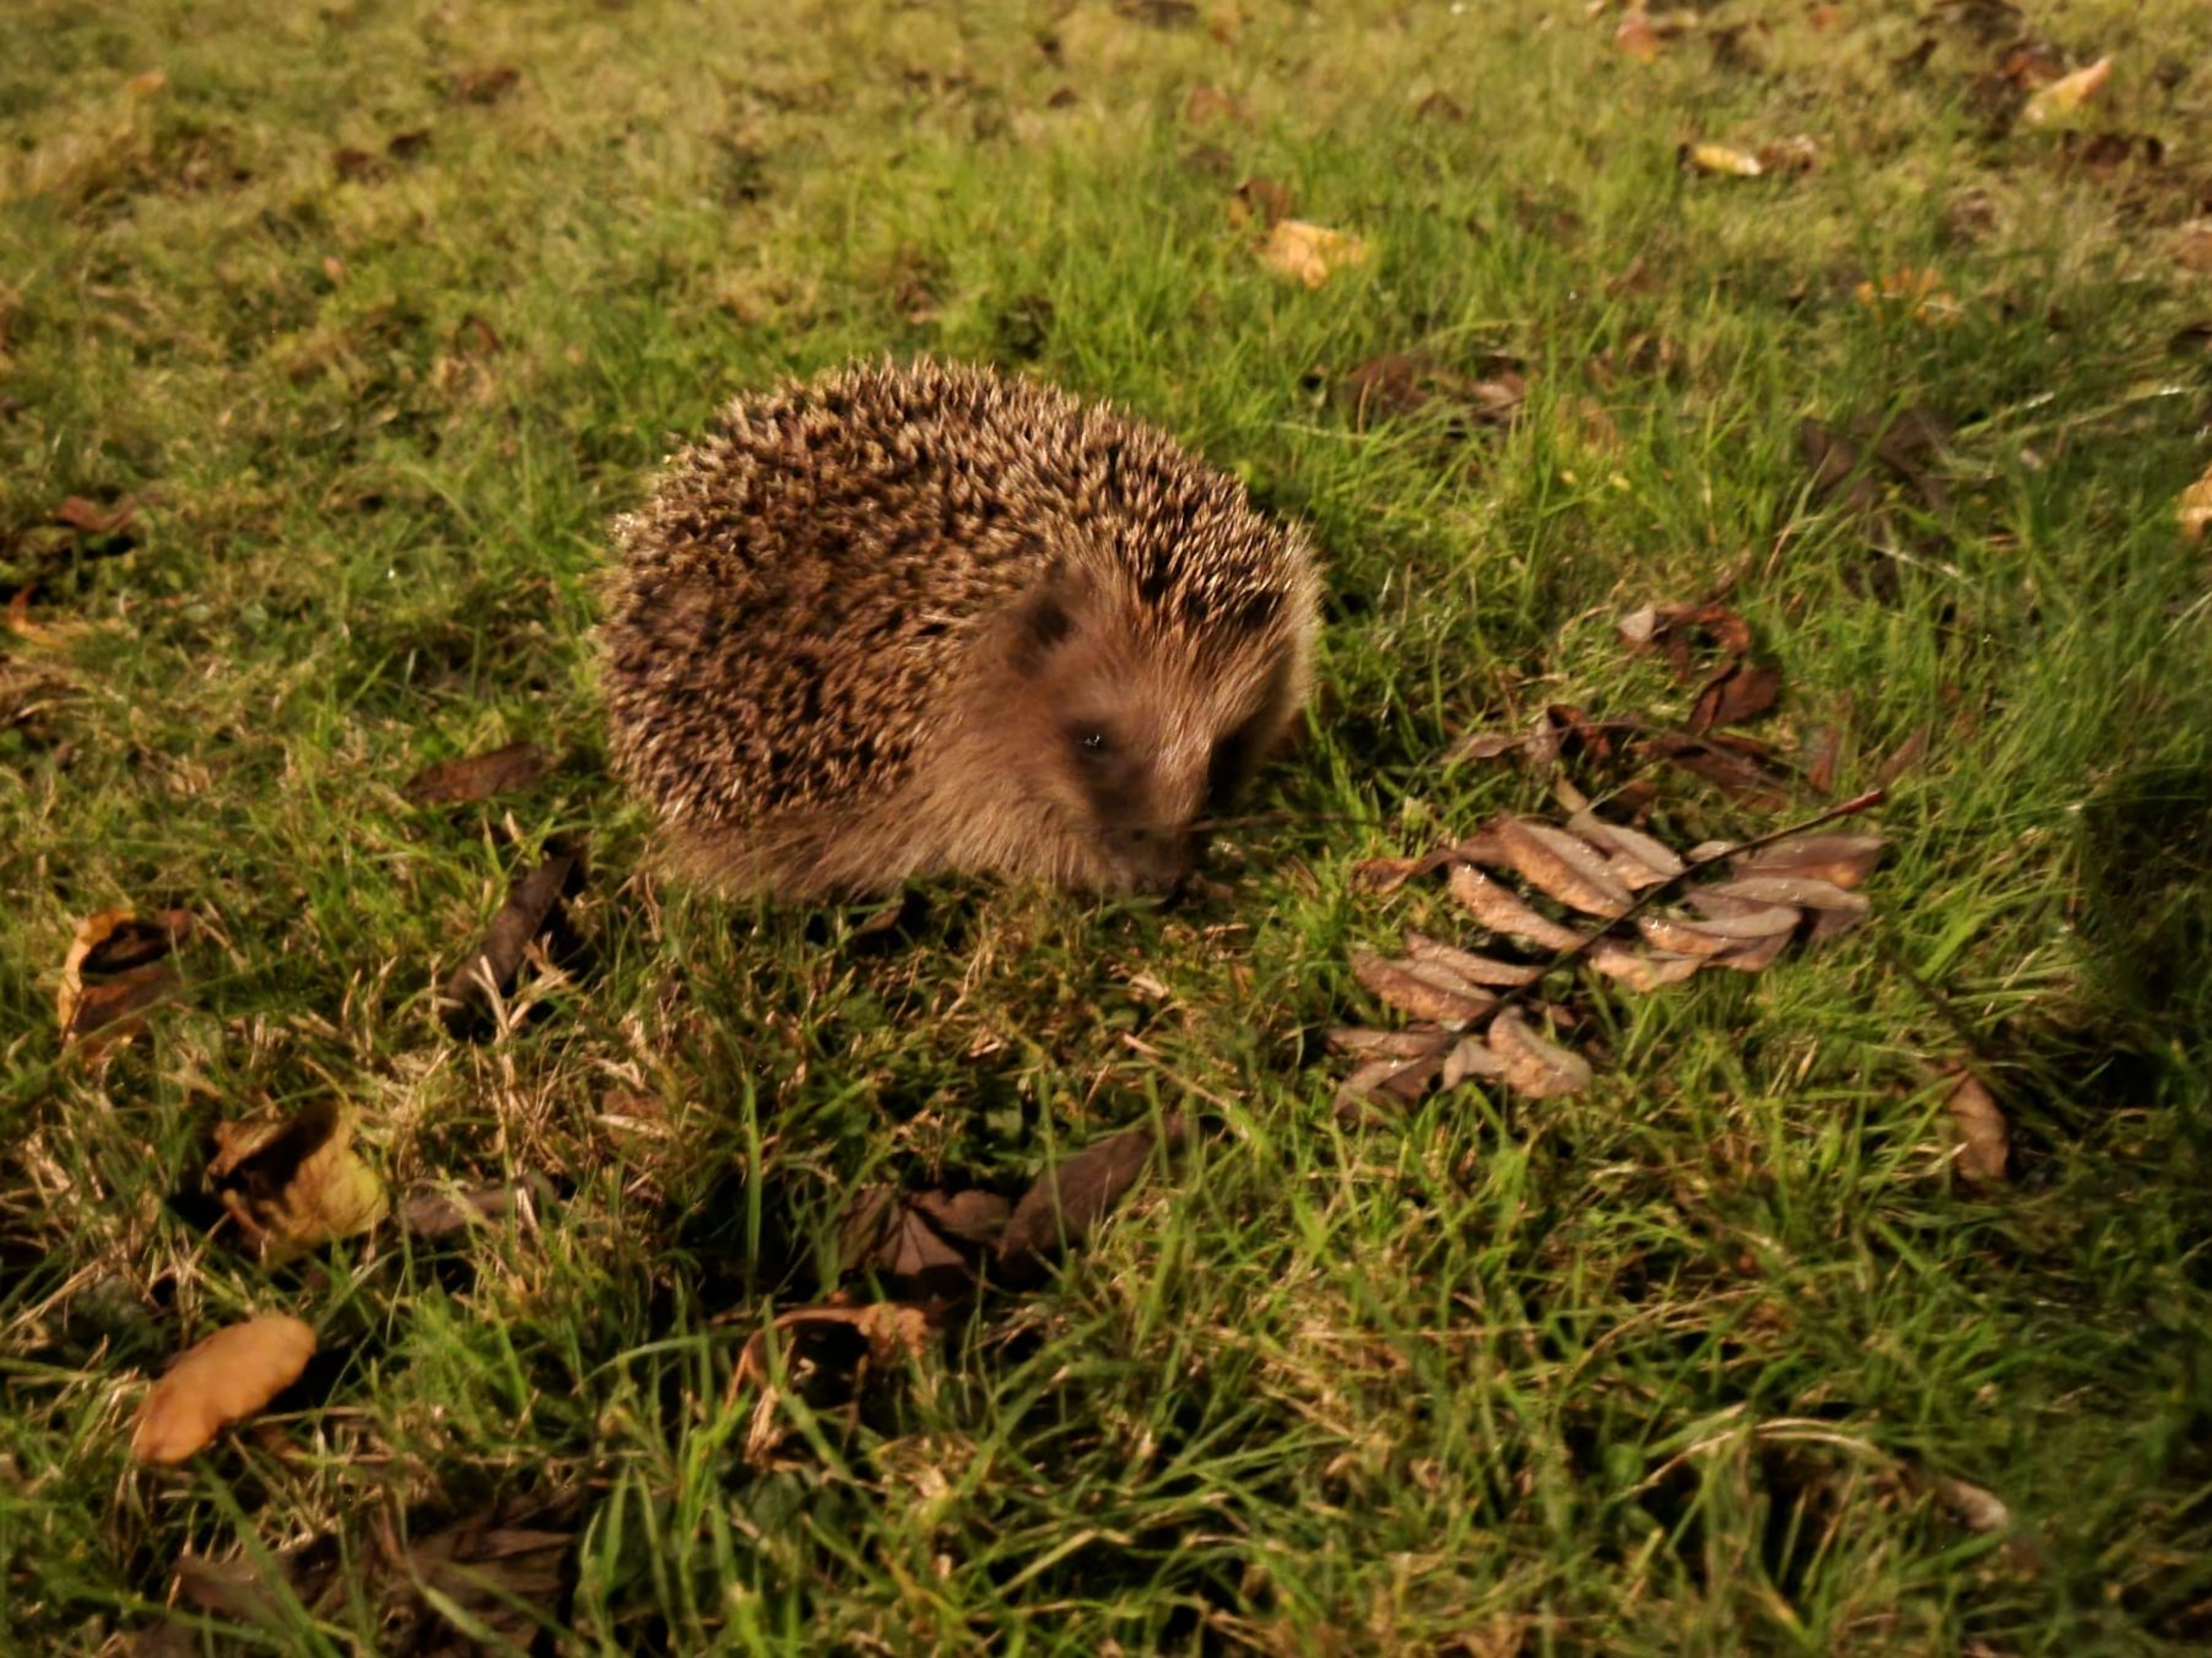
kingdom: Animalia
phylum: Chordata
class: Mammalia
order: Erinaceomorpha
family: Erinaceidae
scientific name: Erinaceidae
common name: Pindsvin
